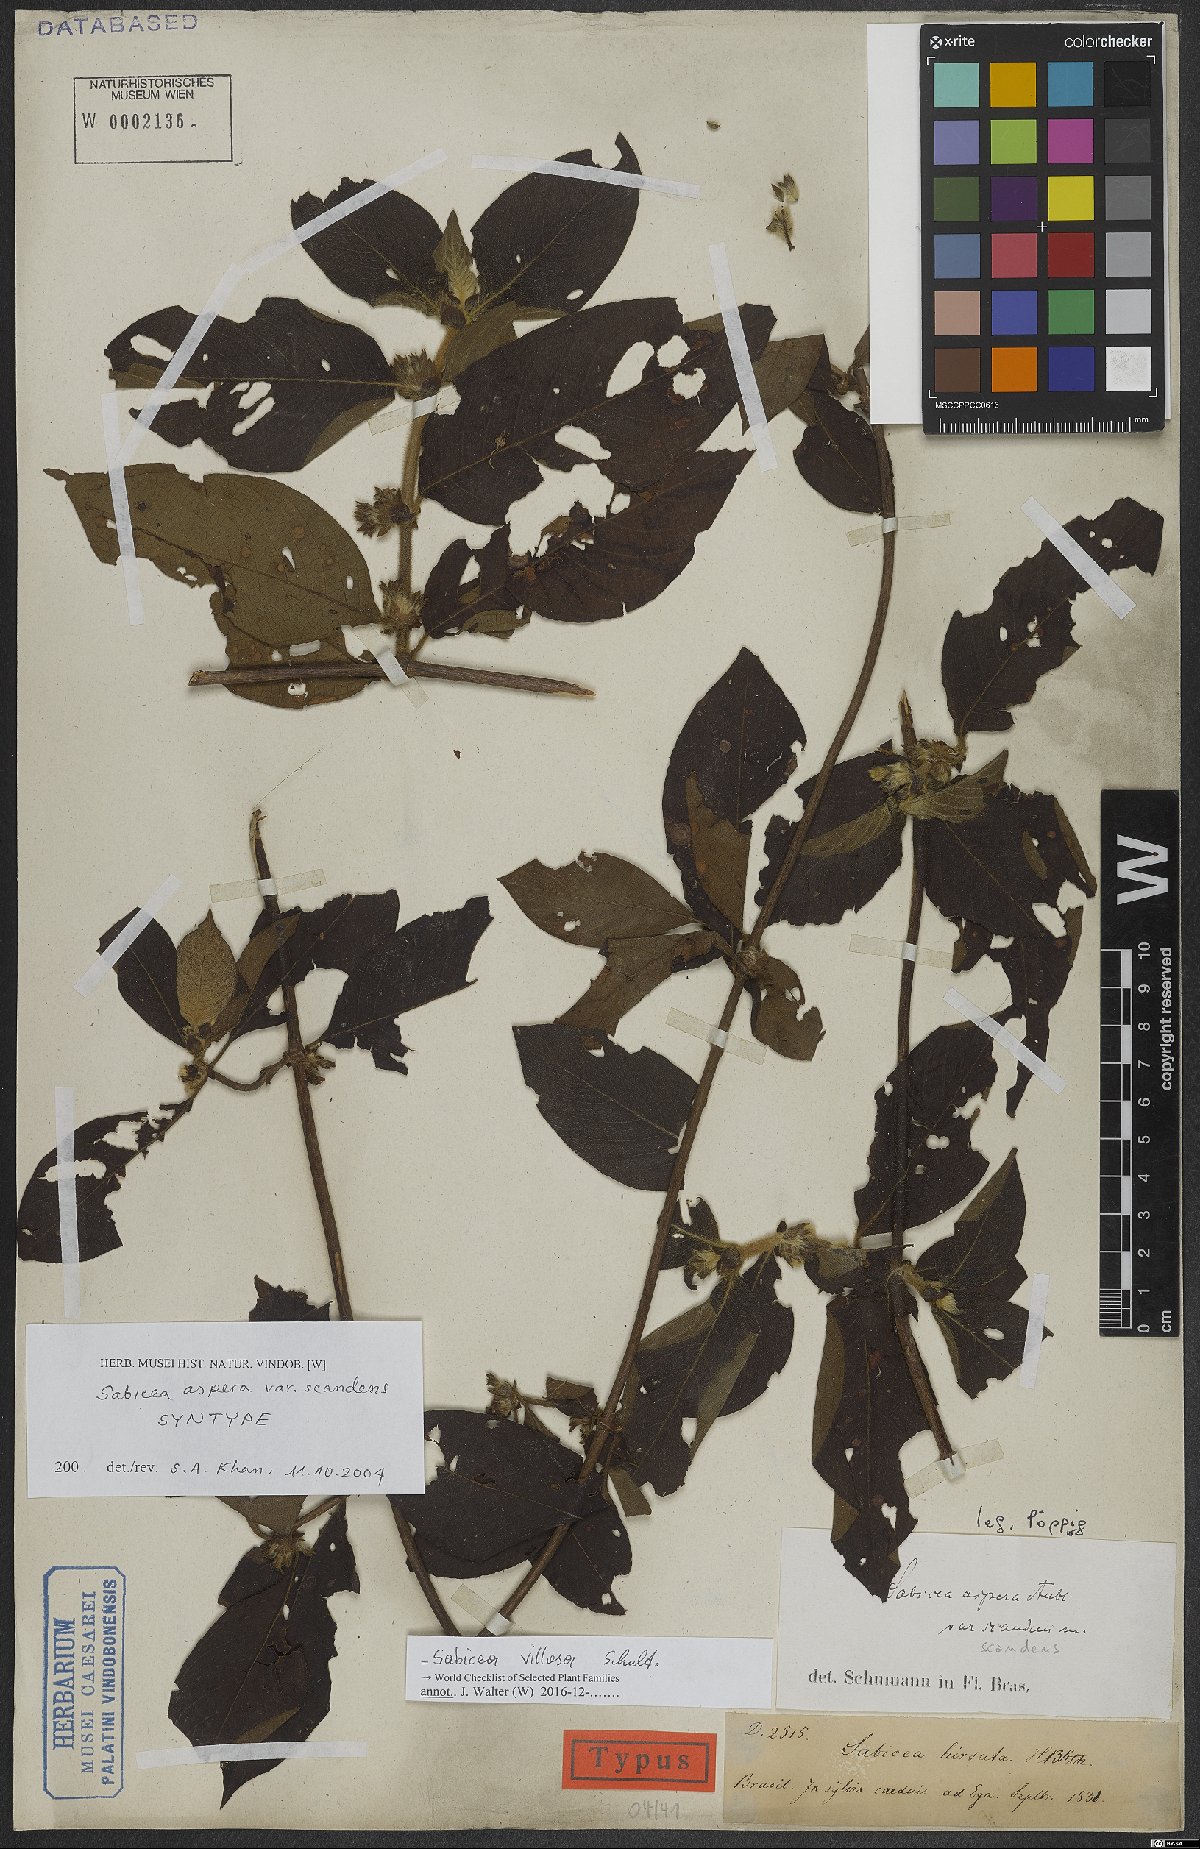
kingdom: Plantae
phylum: Tracheophyta
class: Magnoliopsida
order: Gentianales
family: Rubiaceae
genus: Sabicea
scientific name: Sabicea villosa
